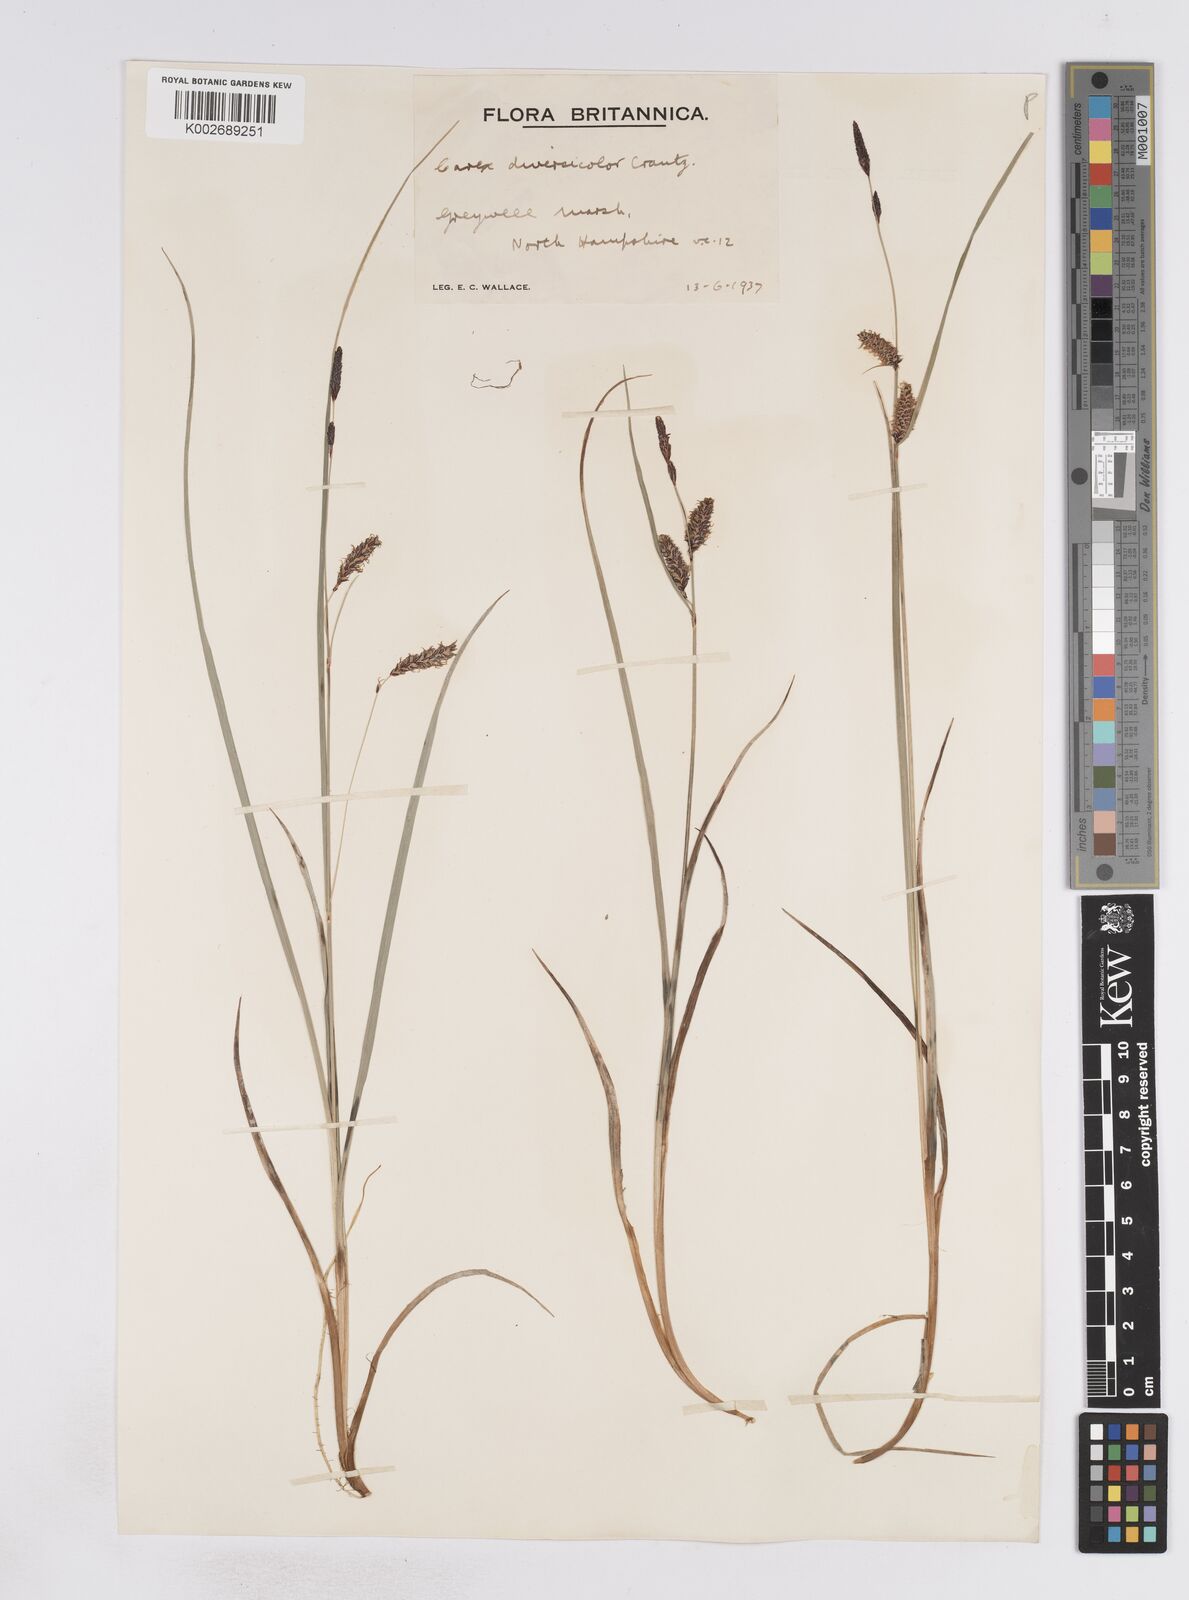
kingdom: Plantae
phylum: Tracheophyta
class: Liliopsida
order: Poales
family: Cyperaceae
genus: Carex
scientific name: Carex flacca
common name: Glaucous sedge
